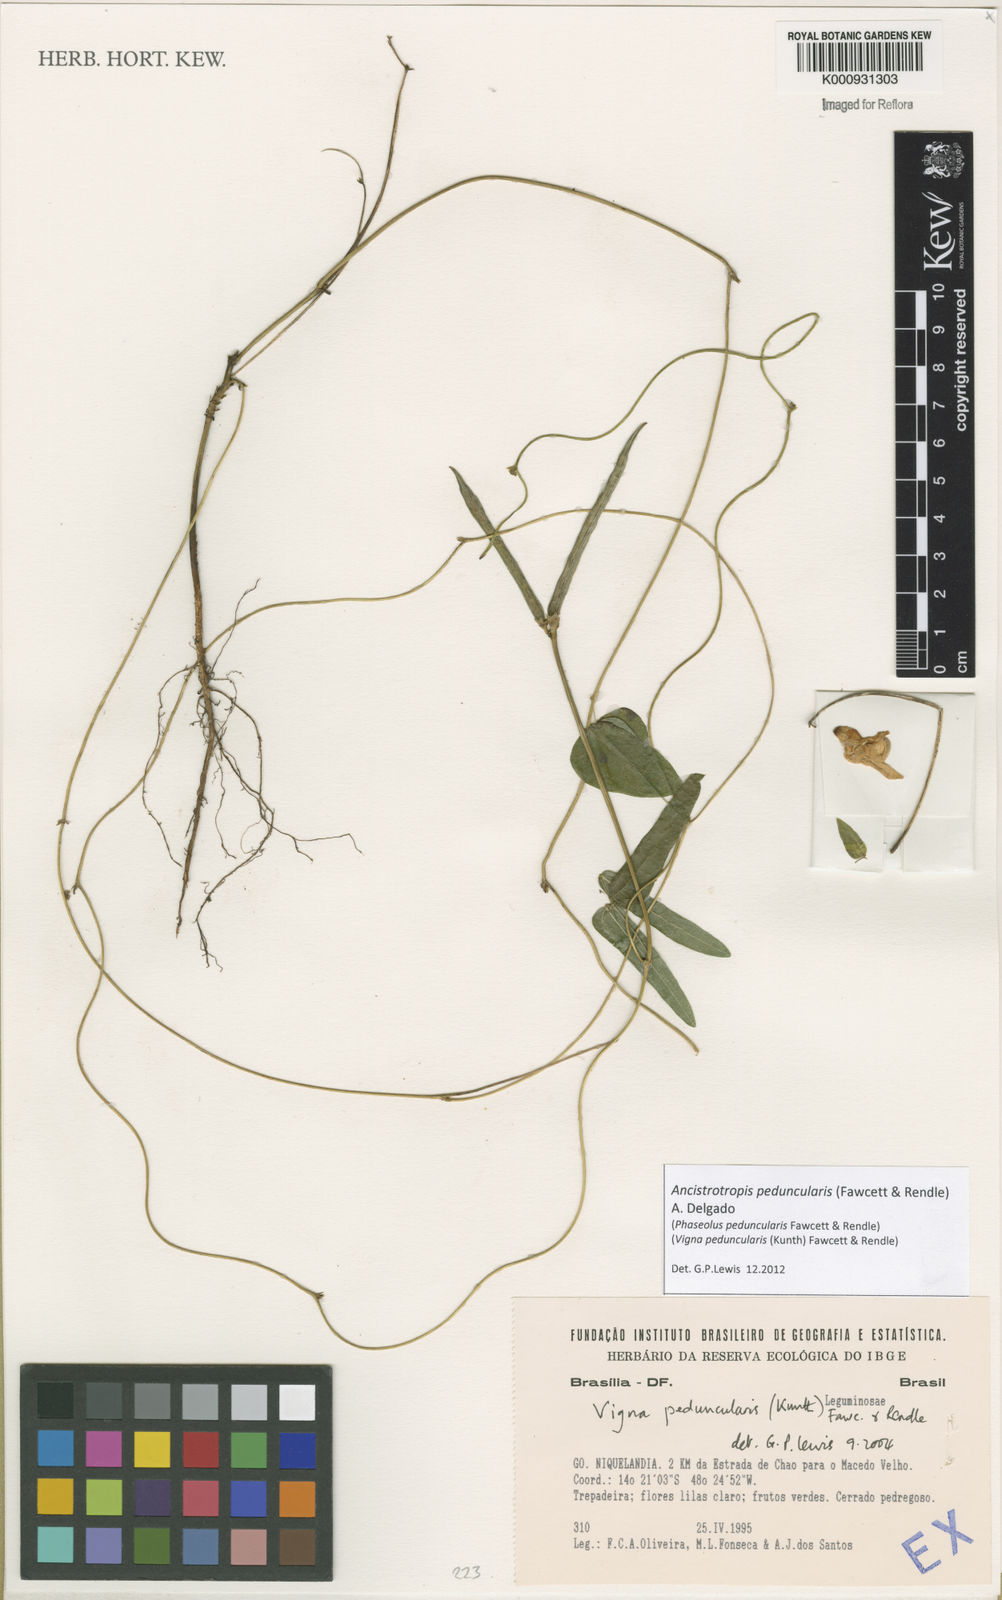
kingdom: Plantae
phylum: Tracheophyta
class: Magnoliopsida
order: Fabales
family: Fabaceae
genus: Ancistrotropis
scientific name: Ancistrotropis peduncularis
